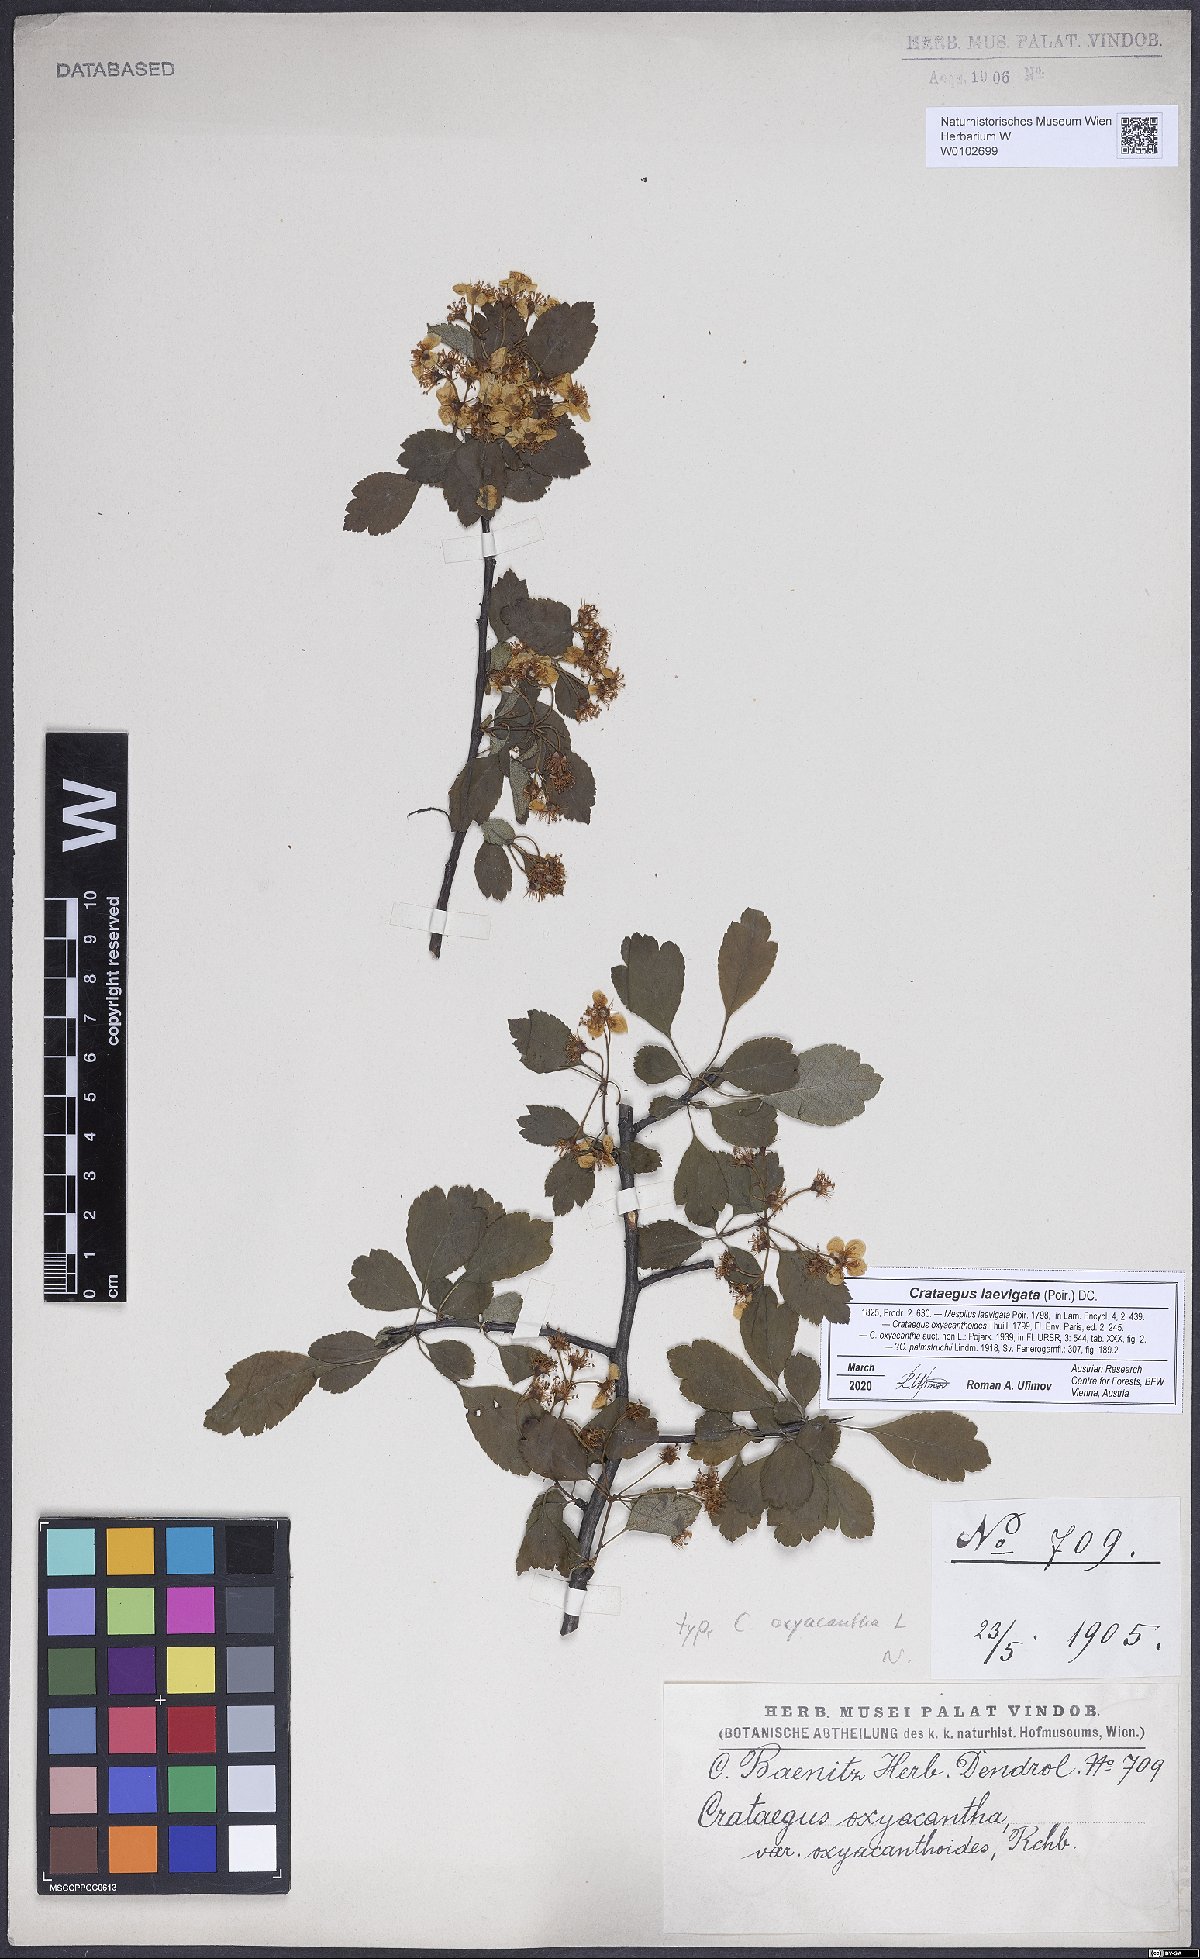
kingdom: Plantae
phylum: Tracheophyta
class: Magnoliopsida
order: Rosales
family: Rosaceae
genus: Crataegus
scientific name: Crataegus laevigata
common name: Midland hawthorn
